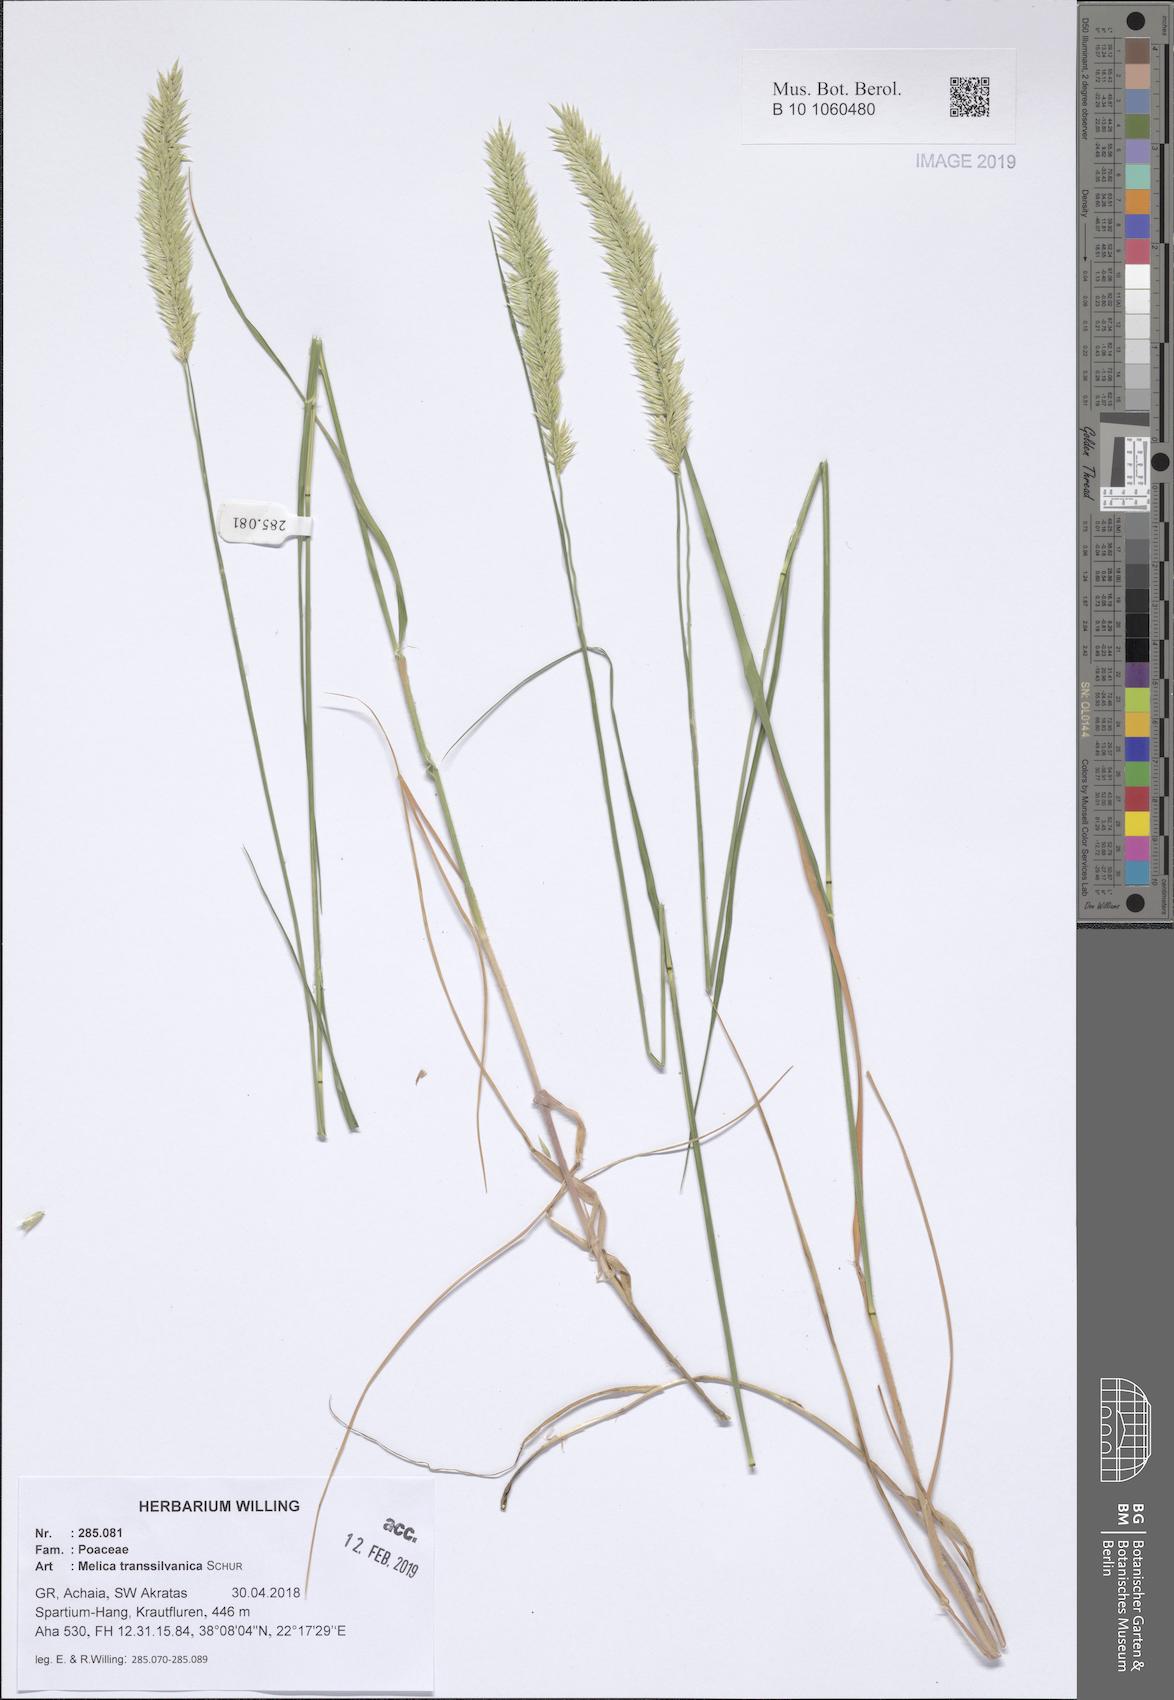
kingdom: Plantae
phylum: Tracheophyta
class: Liliopsida
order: Poales
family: Poaceae
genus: Melica
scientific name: Melica transsilvanica
